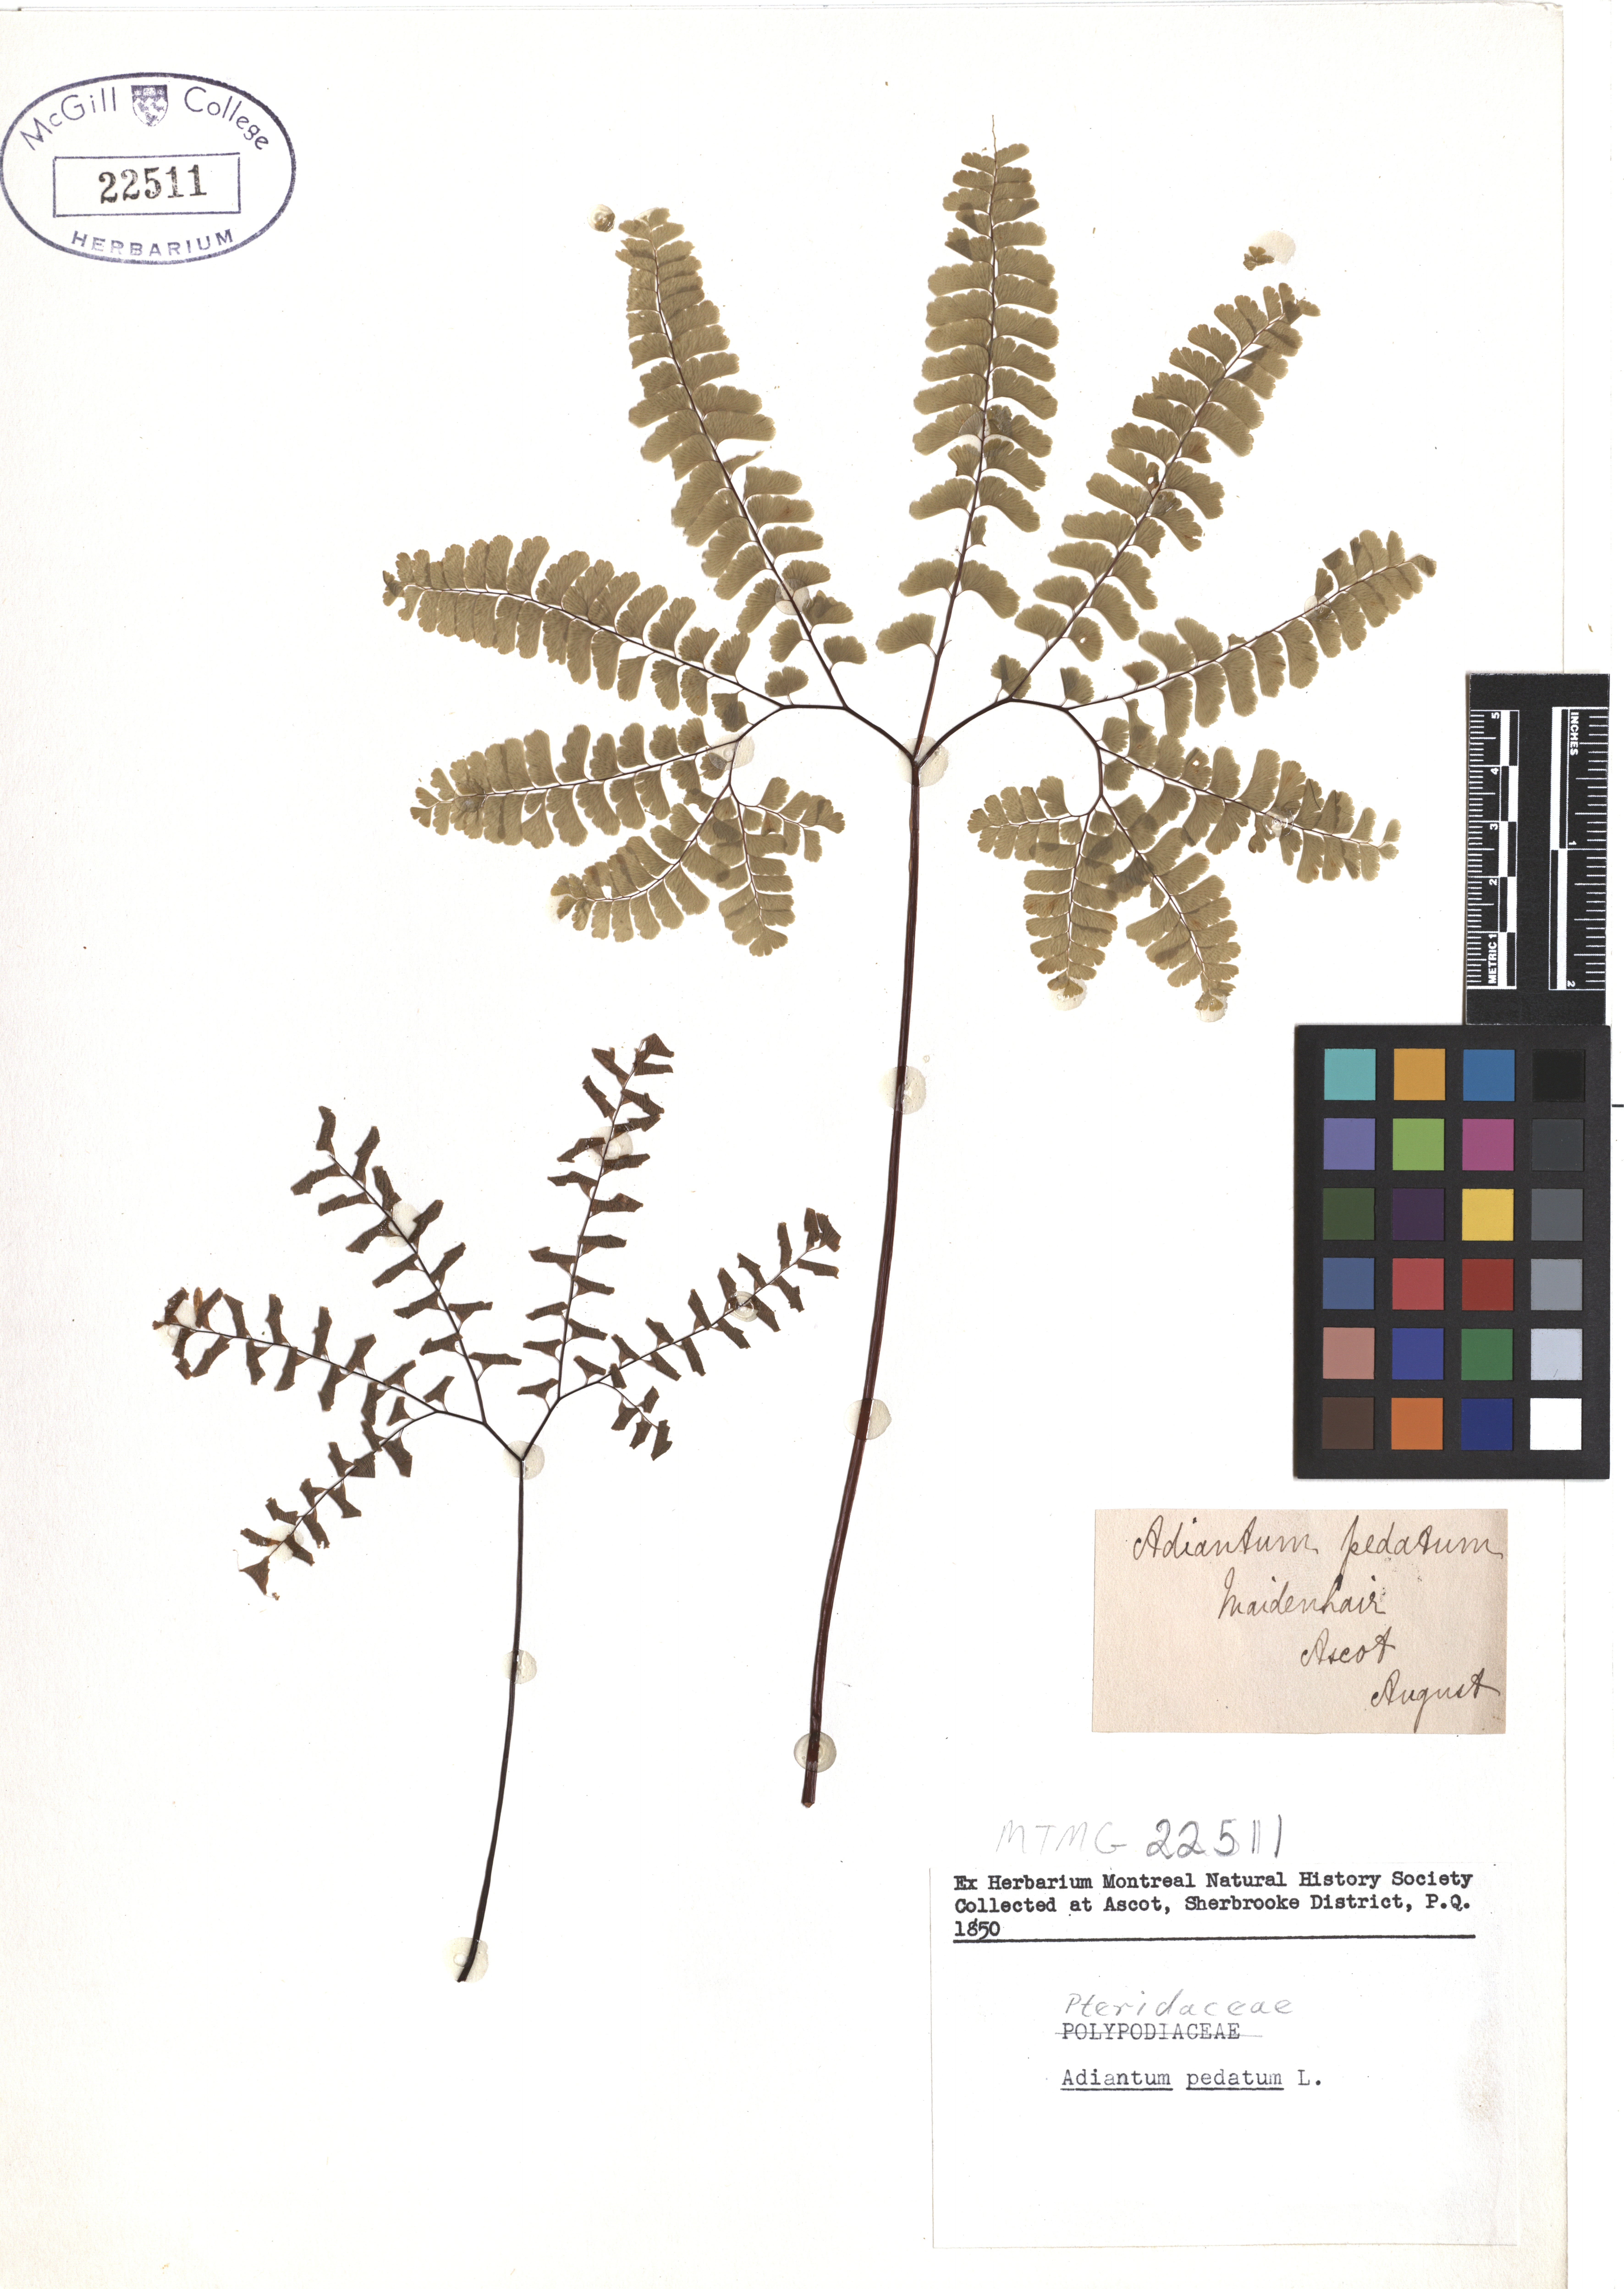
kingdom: Plantae
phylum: Tracheophyta
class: Polypodiopsida
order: Polypodiales
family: Pteridaceae
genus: Adiantum
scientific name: Adiantum pedatum
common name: Five-finger fern
